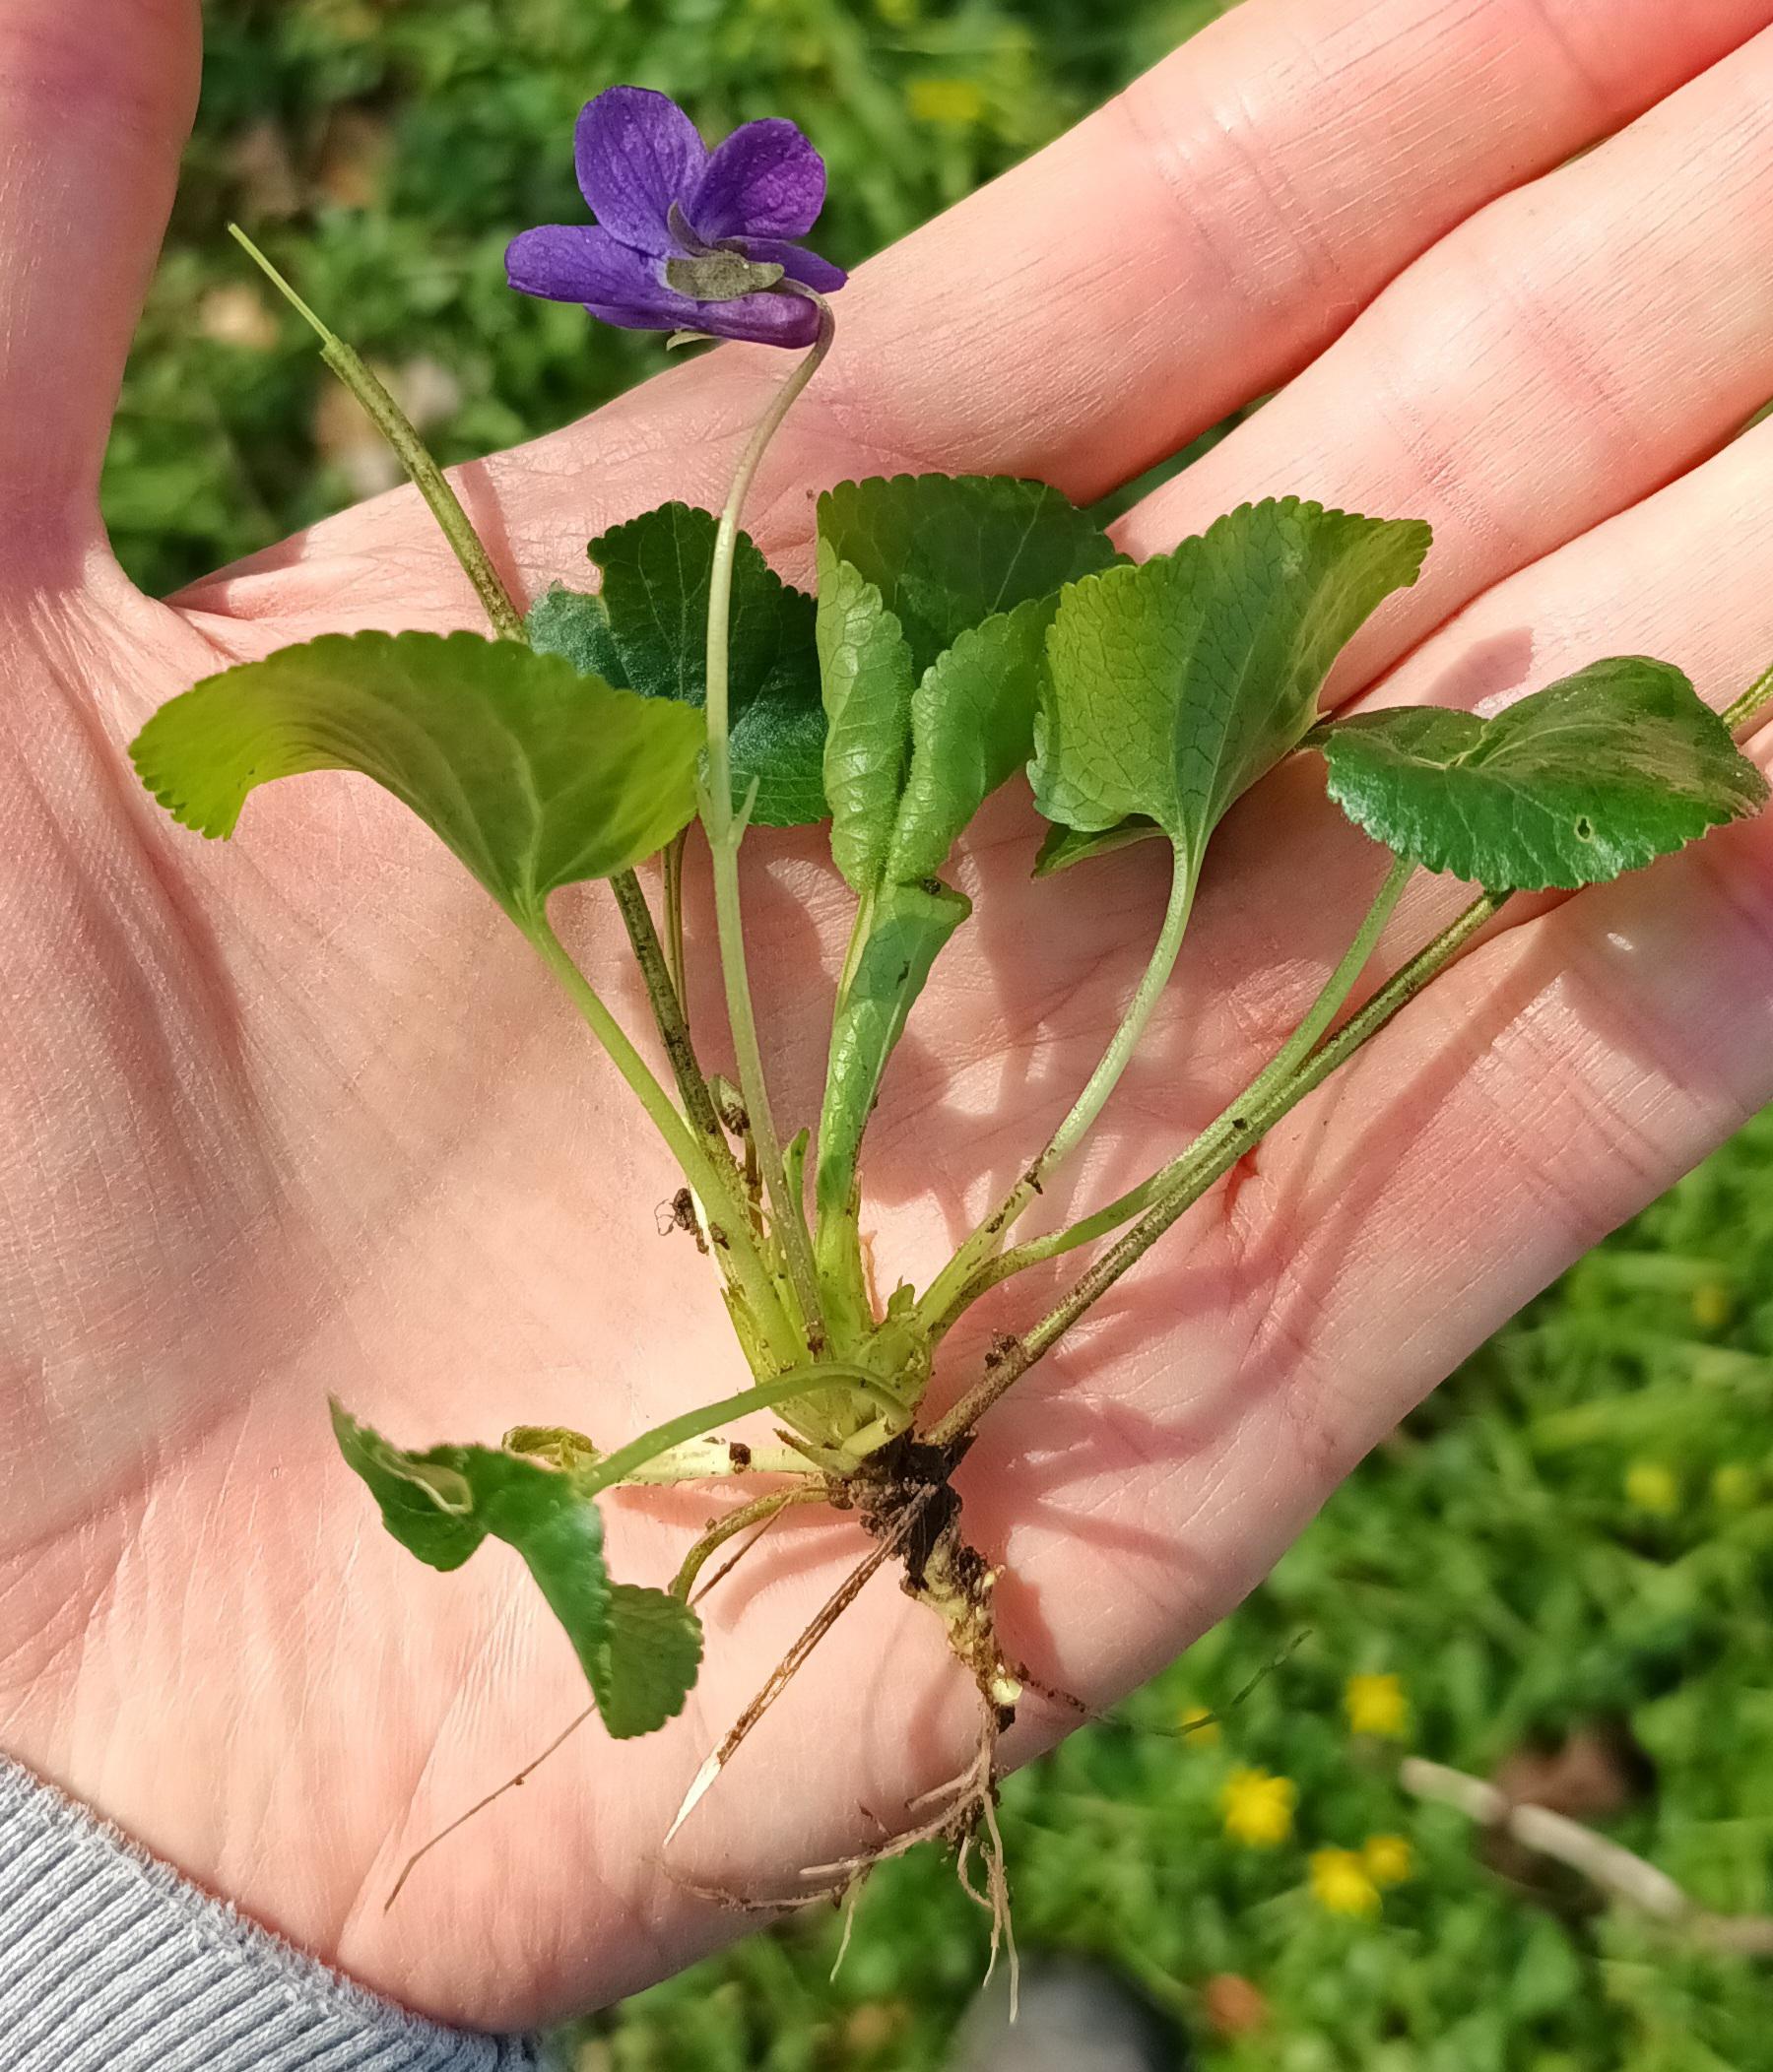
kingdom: Plantae
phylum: Tracheophyta
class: Magnoliopsida
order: Malpighiales
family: Violaceae
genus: Viola
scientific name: Viola odorata
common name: Marts-viol
